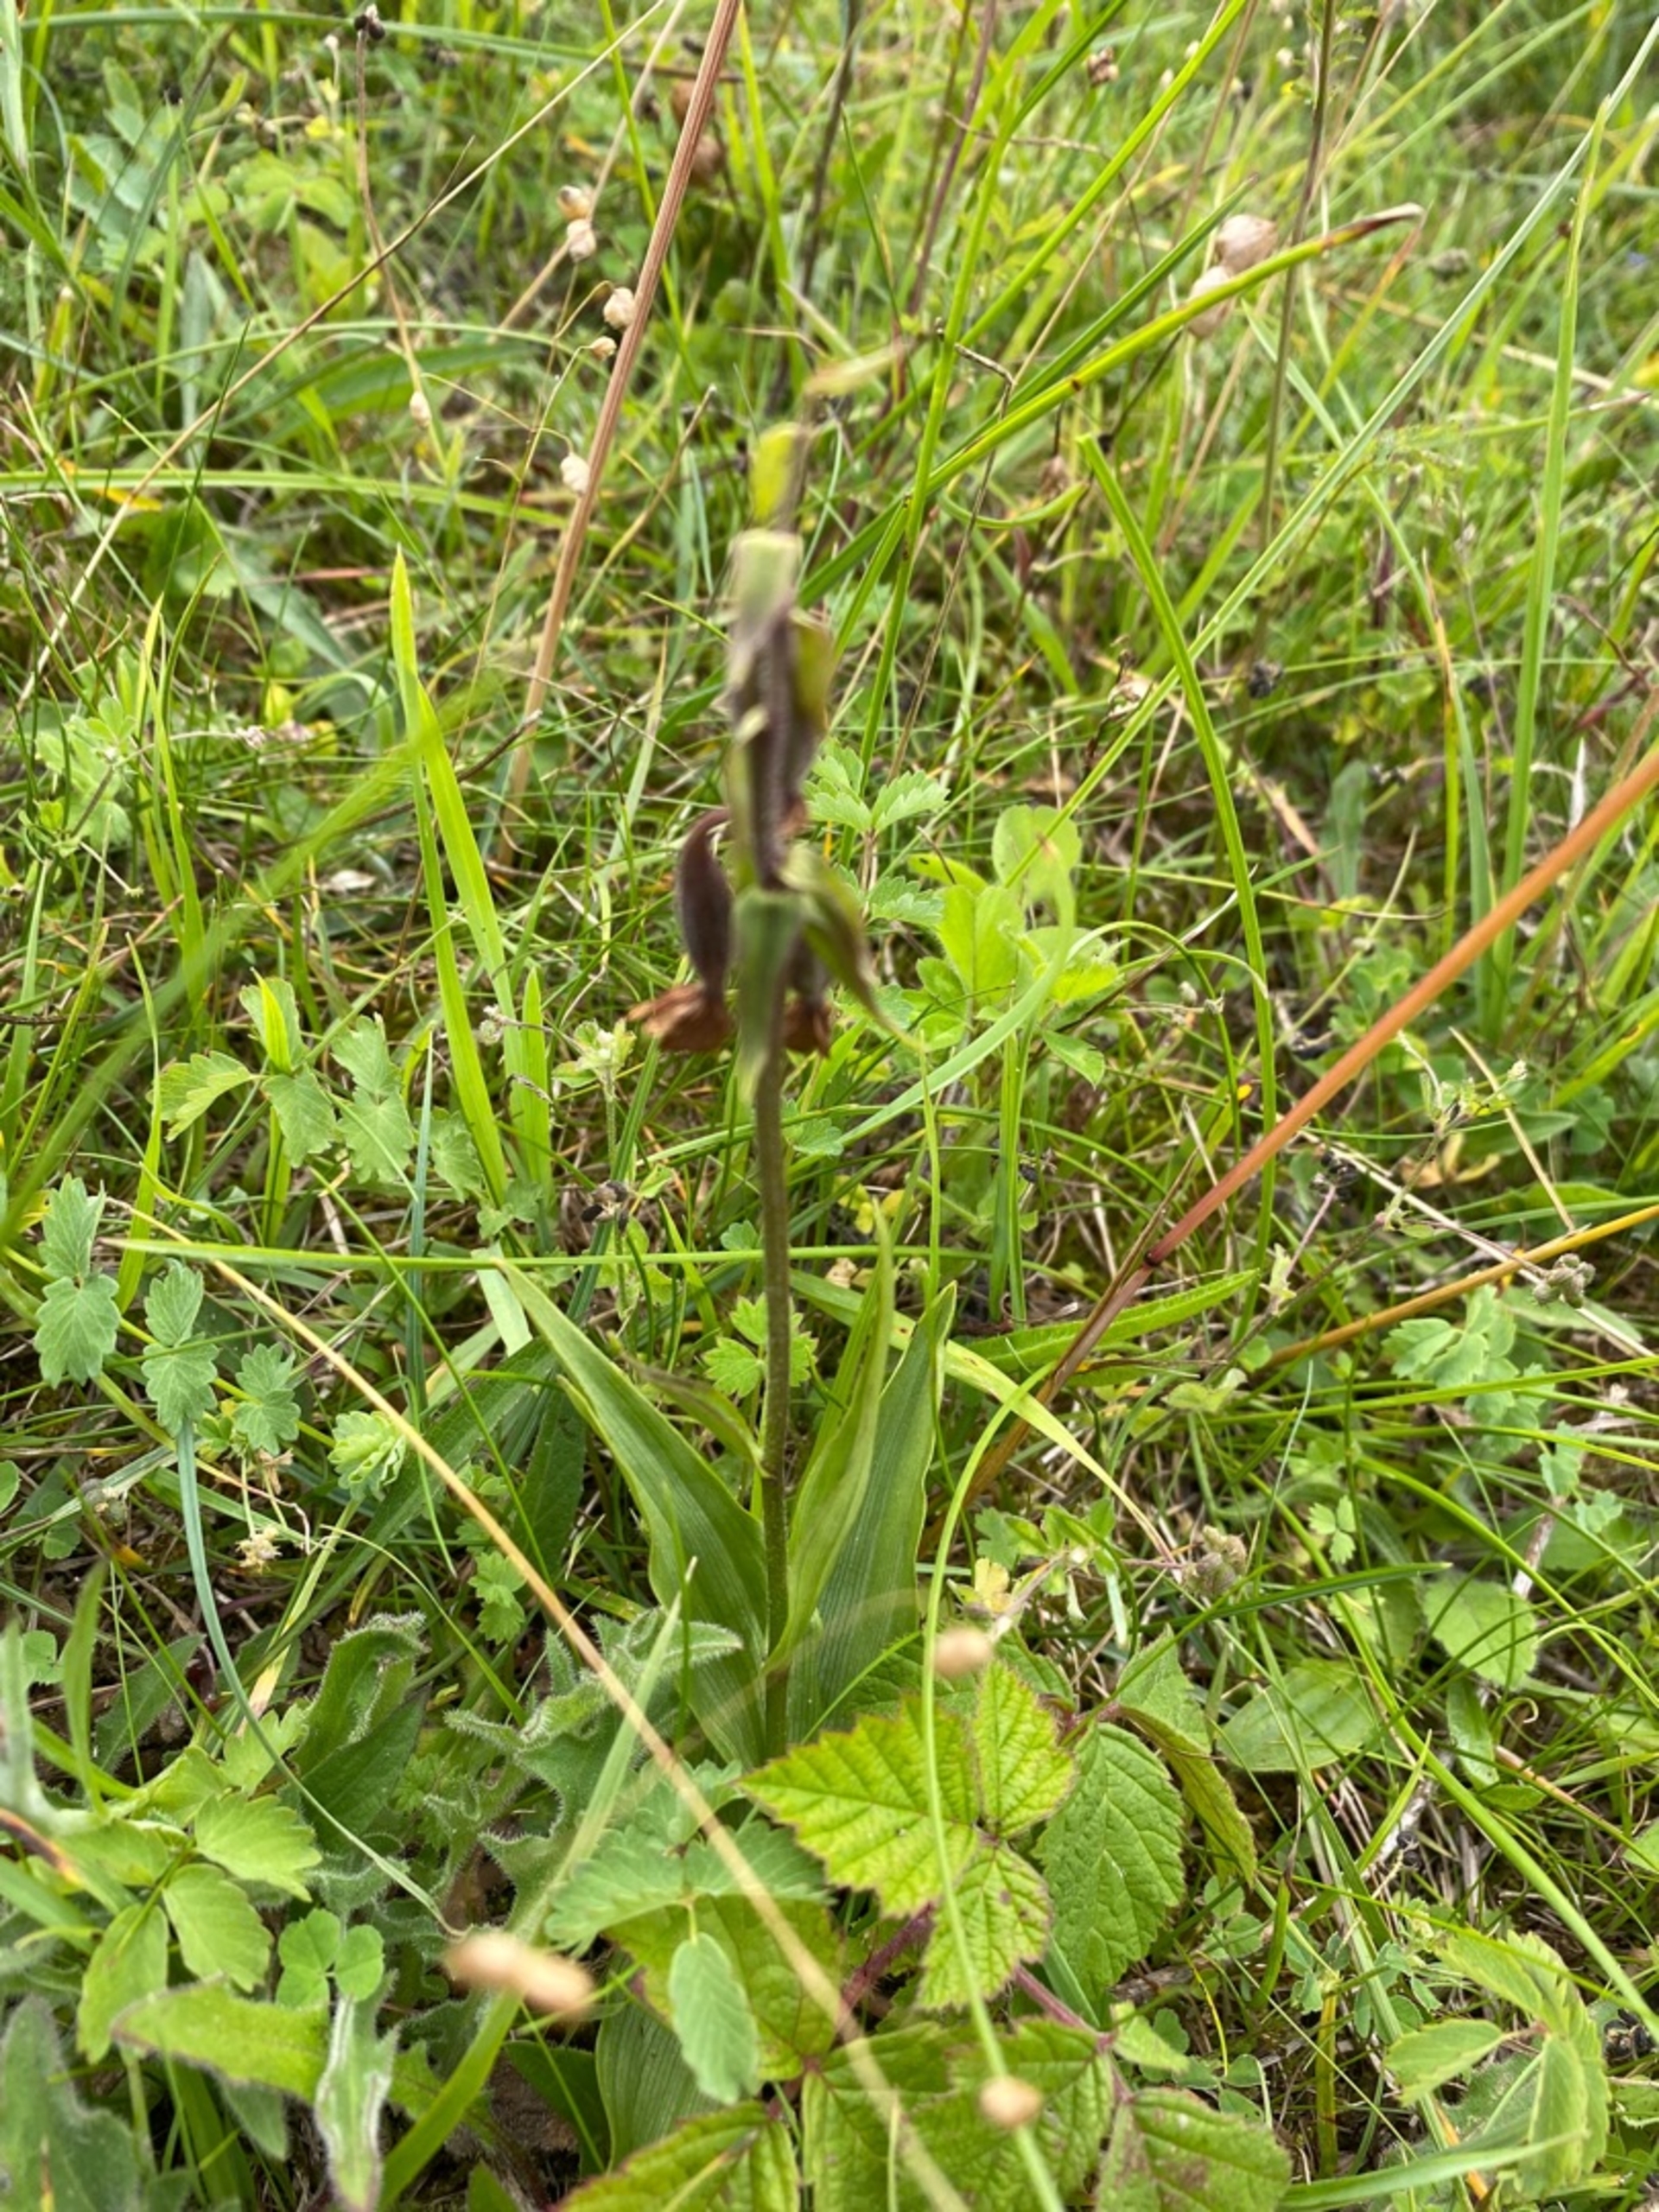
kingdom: Plantae
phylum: Tracheophyta
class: Liliopsida
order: Asparagales
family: Orchidaceae
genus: Epipactis
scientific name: Epipactis palustris
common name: Sump-hullæbe
